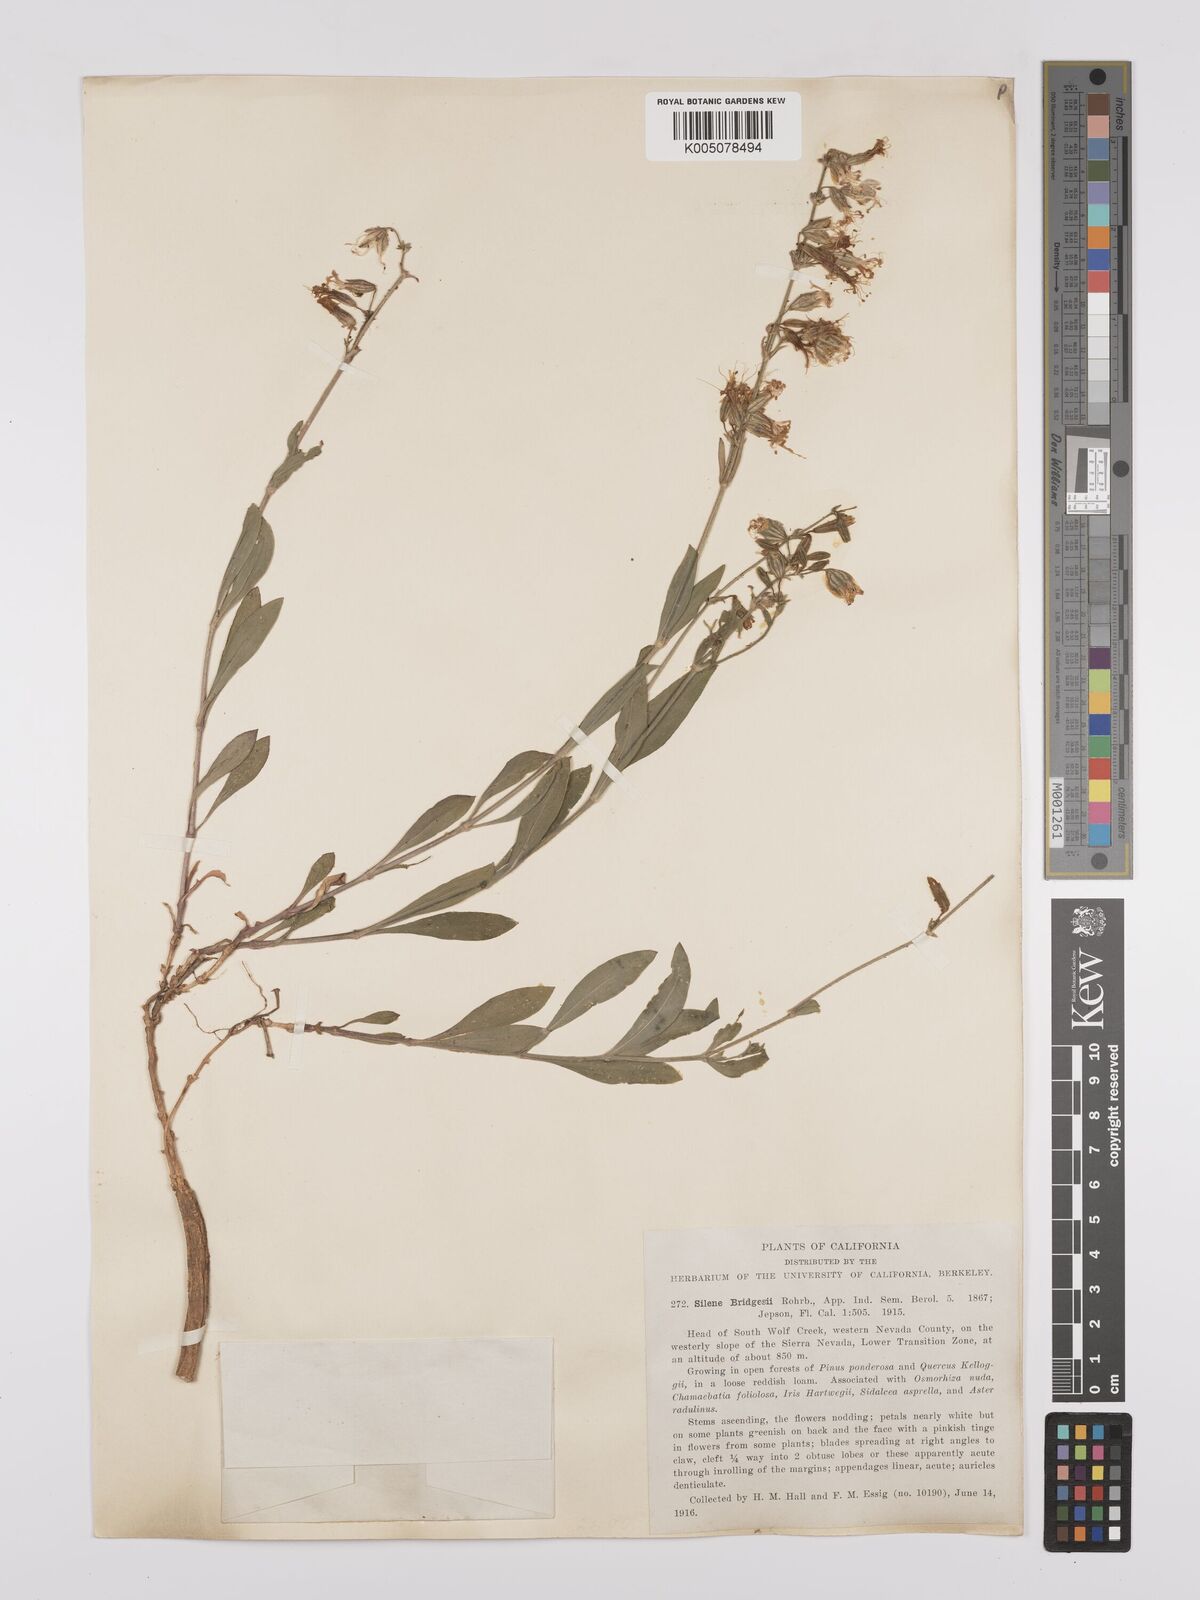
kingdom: Plantae
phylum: Tracheophyta
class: Magnoliopsida
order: Caryophyllales
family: Caryophyllaceae
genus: Silene
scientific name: Silene bridgesii
